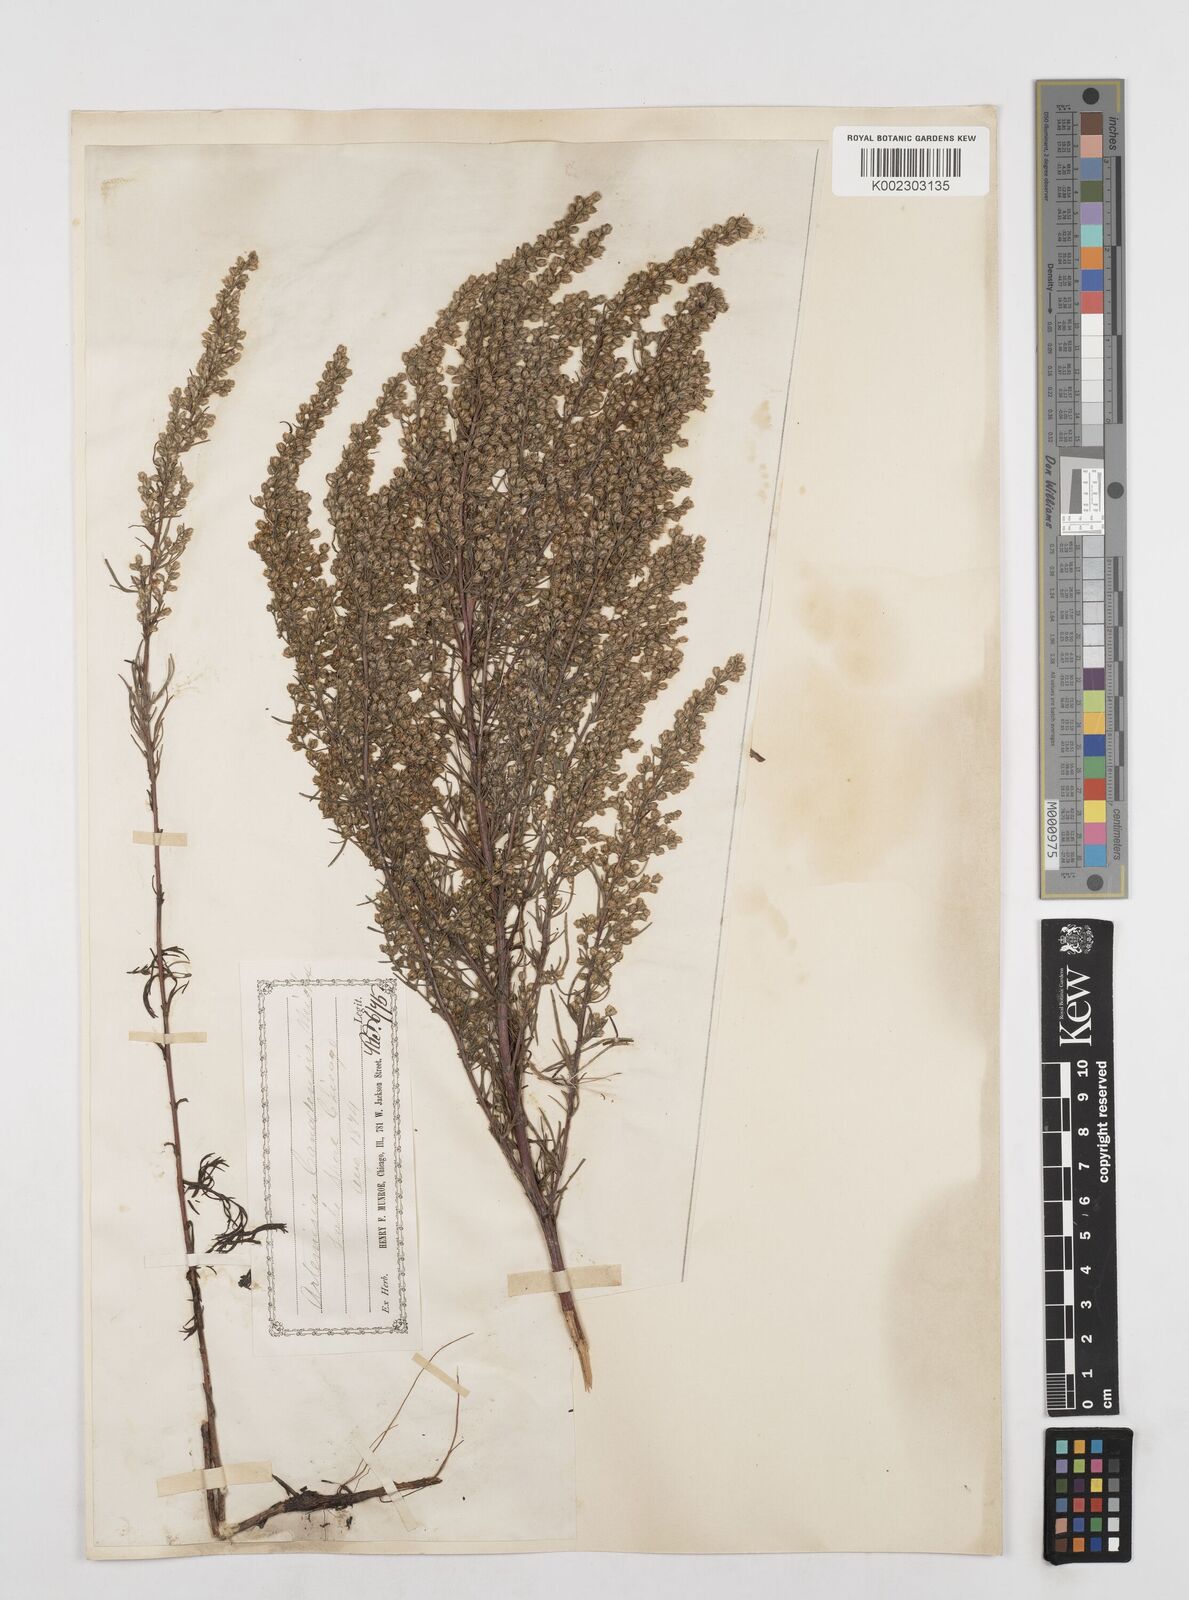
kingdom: Plantae
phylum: Tracheophyta
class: Magnoliopsida
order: Asterales
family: Asteraceae
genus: Artemisia
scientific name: Artemisia campestris
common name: Field wormwood
